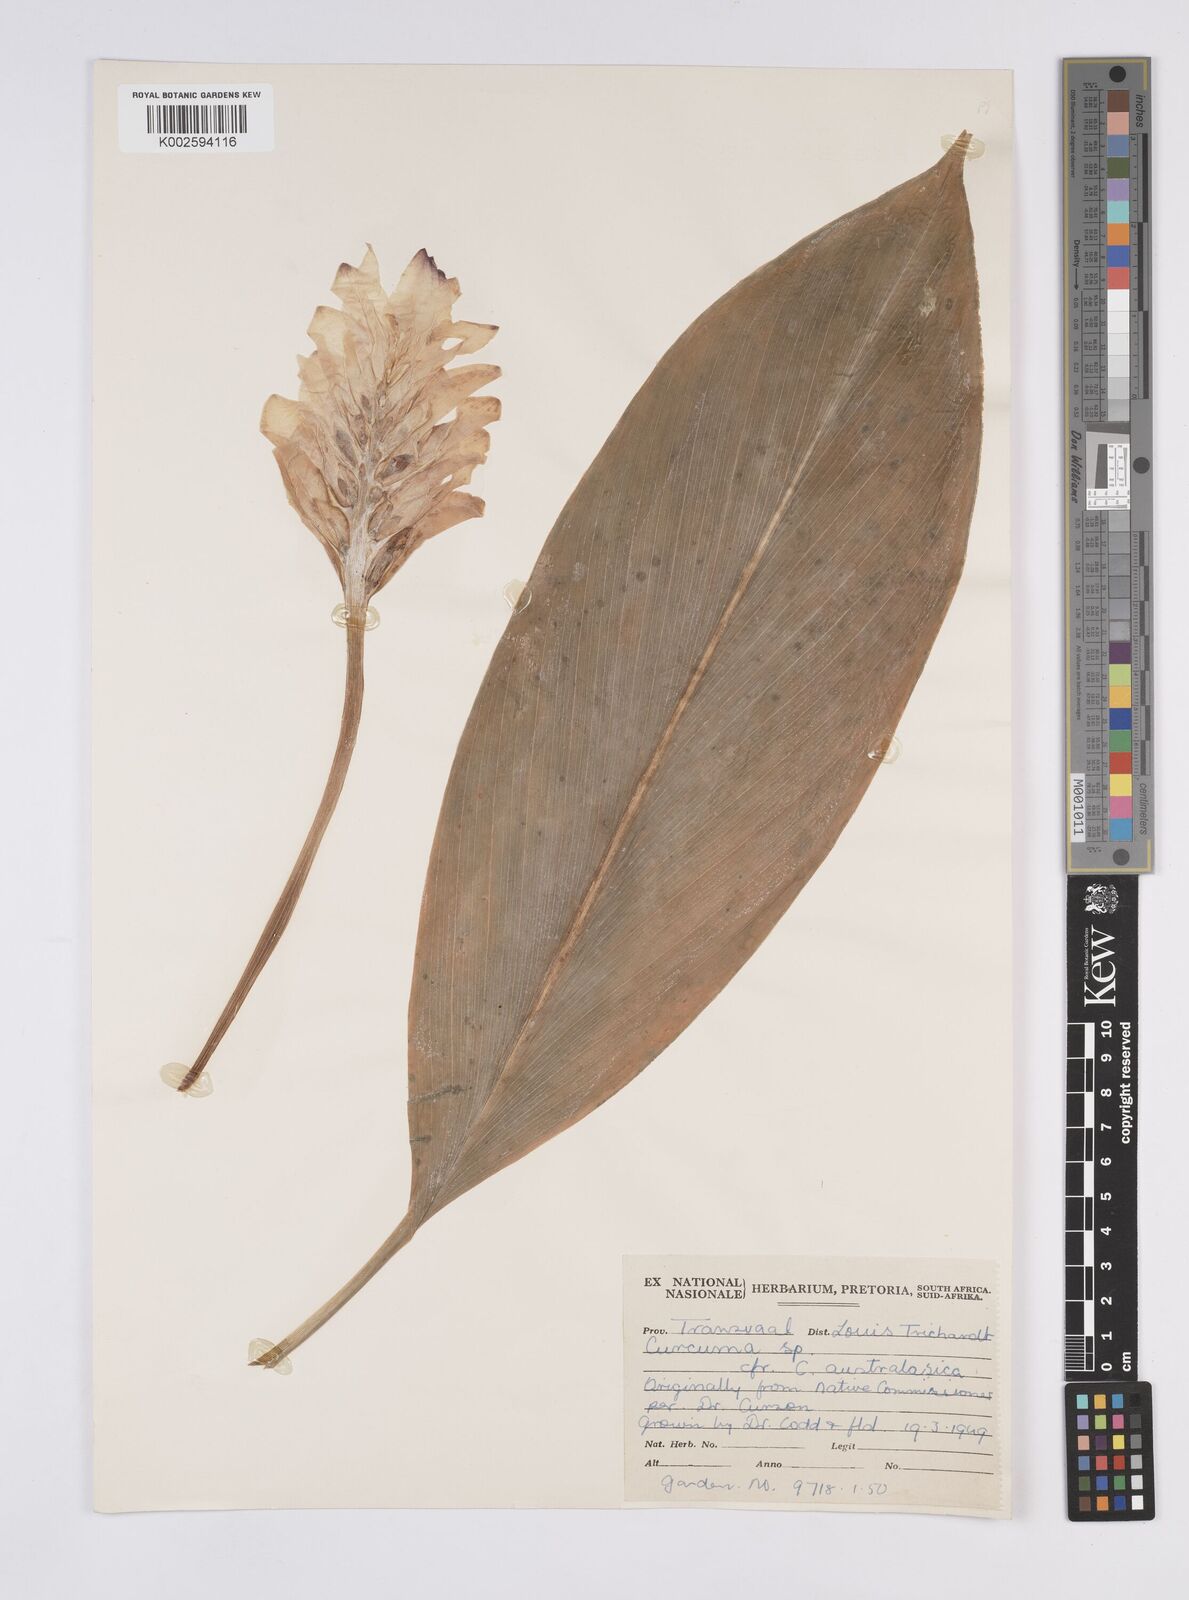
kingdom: Plantae
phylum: Tracheophyta
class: Liliopsida
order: Zingiberales
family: Zingiberaceae
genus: Curcuma
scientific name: Curcuma
